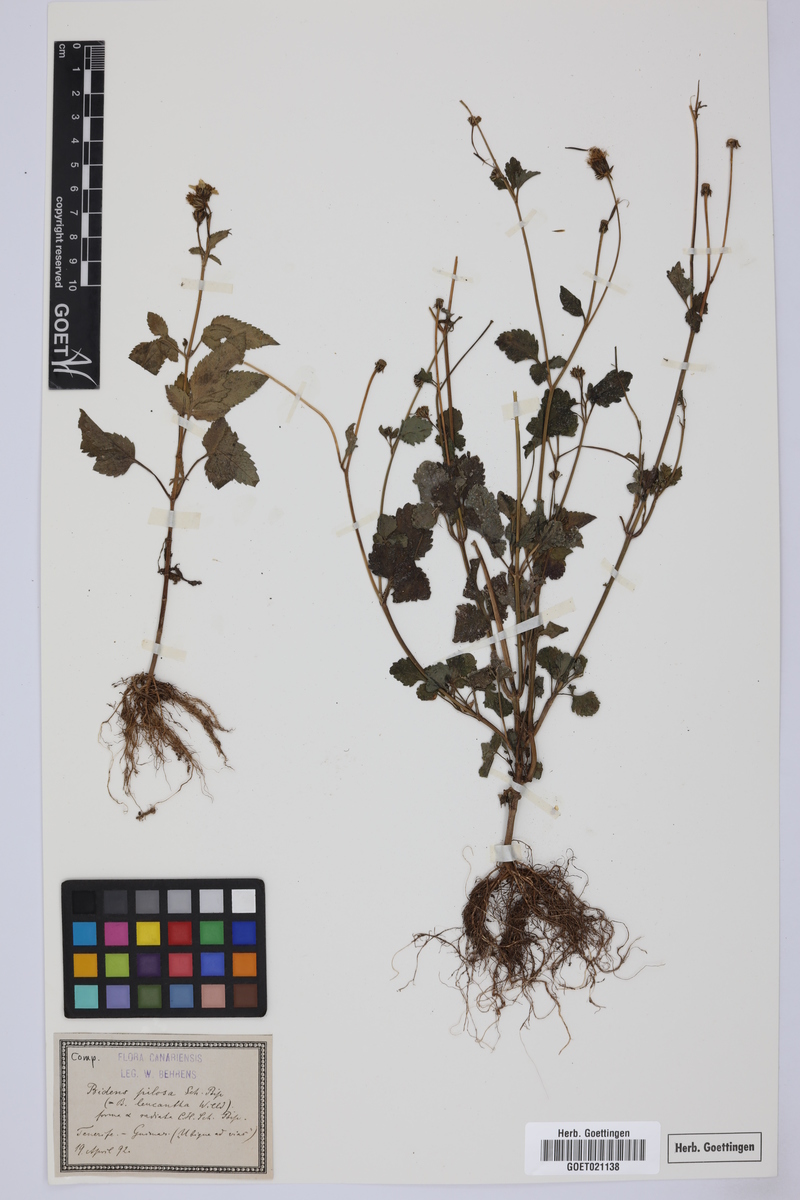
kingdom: Plantae
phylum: Tracheophyta
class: Magnoliopsida
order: Asterales
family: Asteraceae
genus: Bidens
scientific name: Bidens pilosa
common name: Black-jack
